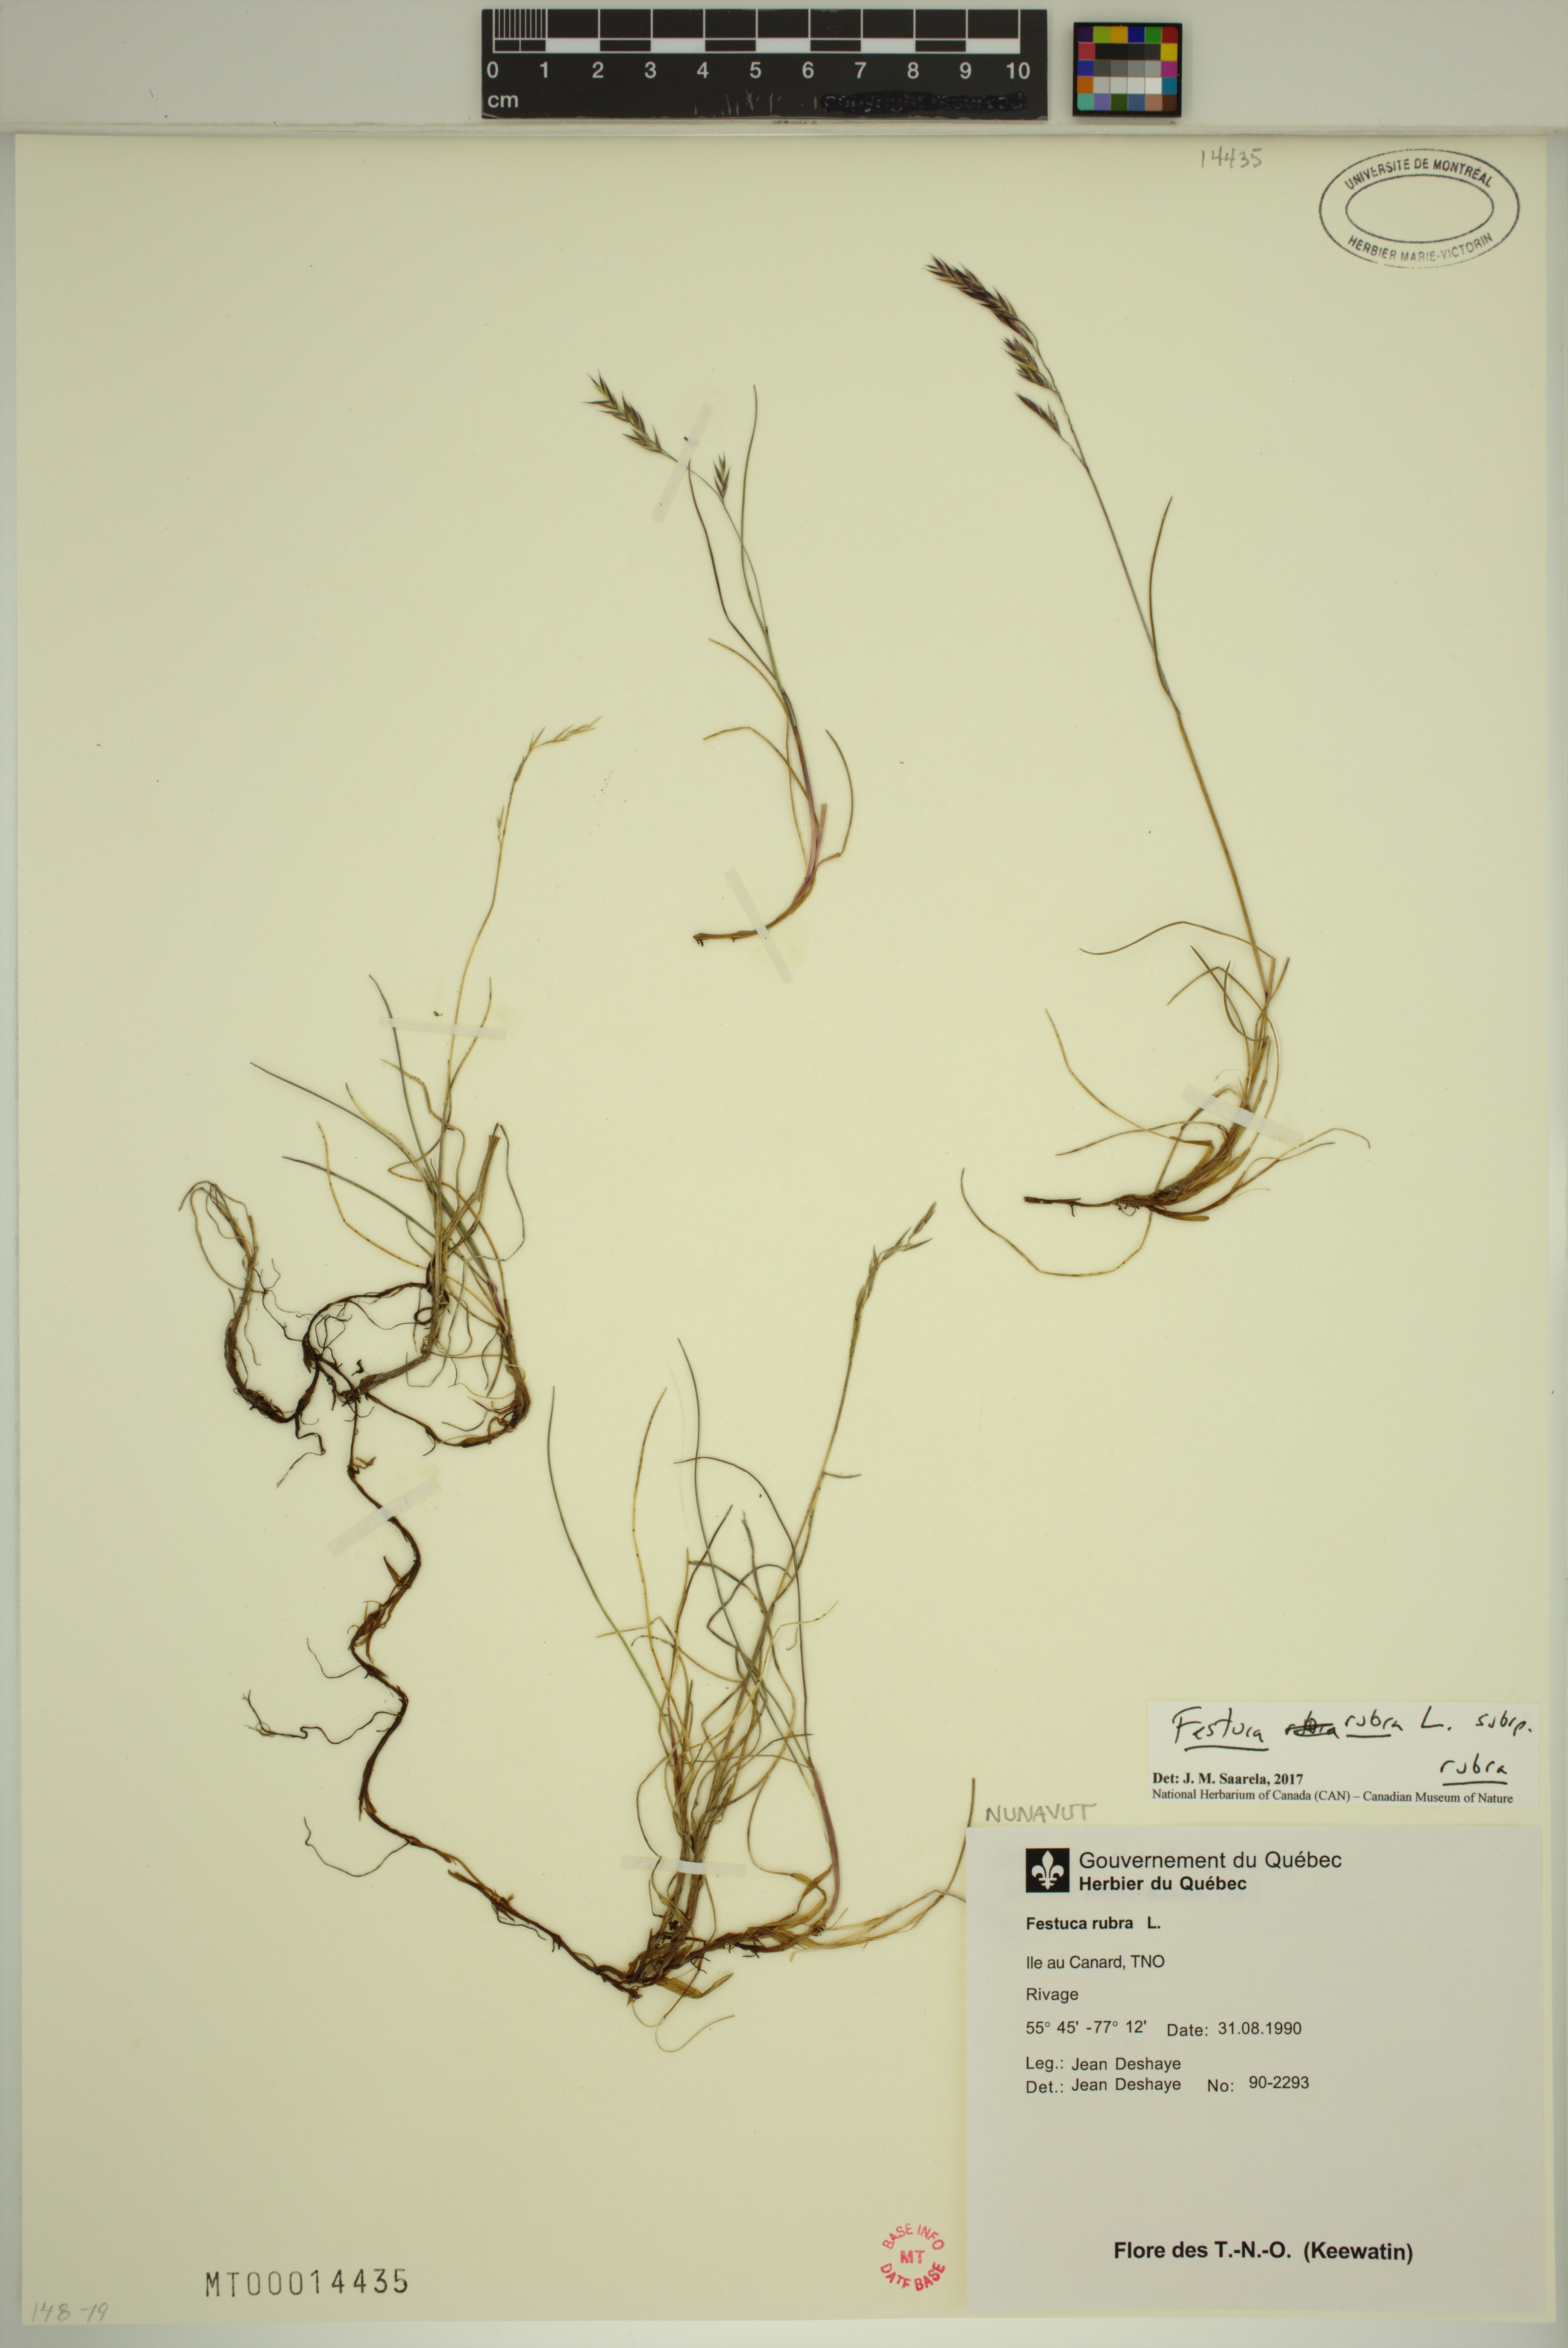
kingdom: Plantae
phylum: Tracheophyta
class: Liliopsida
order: Poales
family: Poaceae
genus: Festuca
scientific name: Festuca rubra
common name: Red fescue
